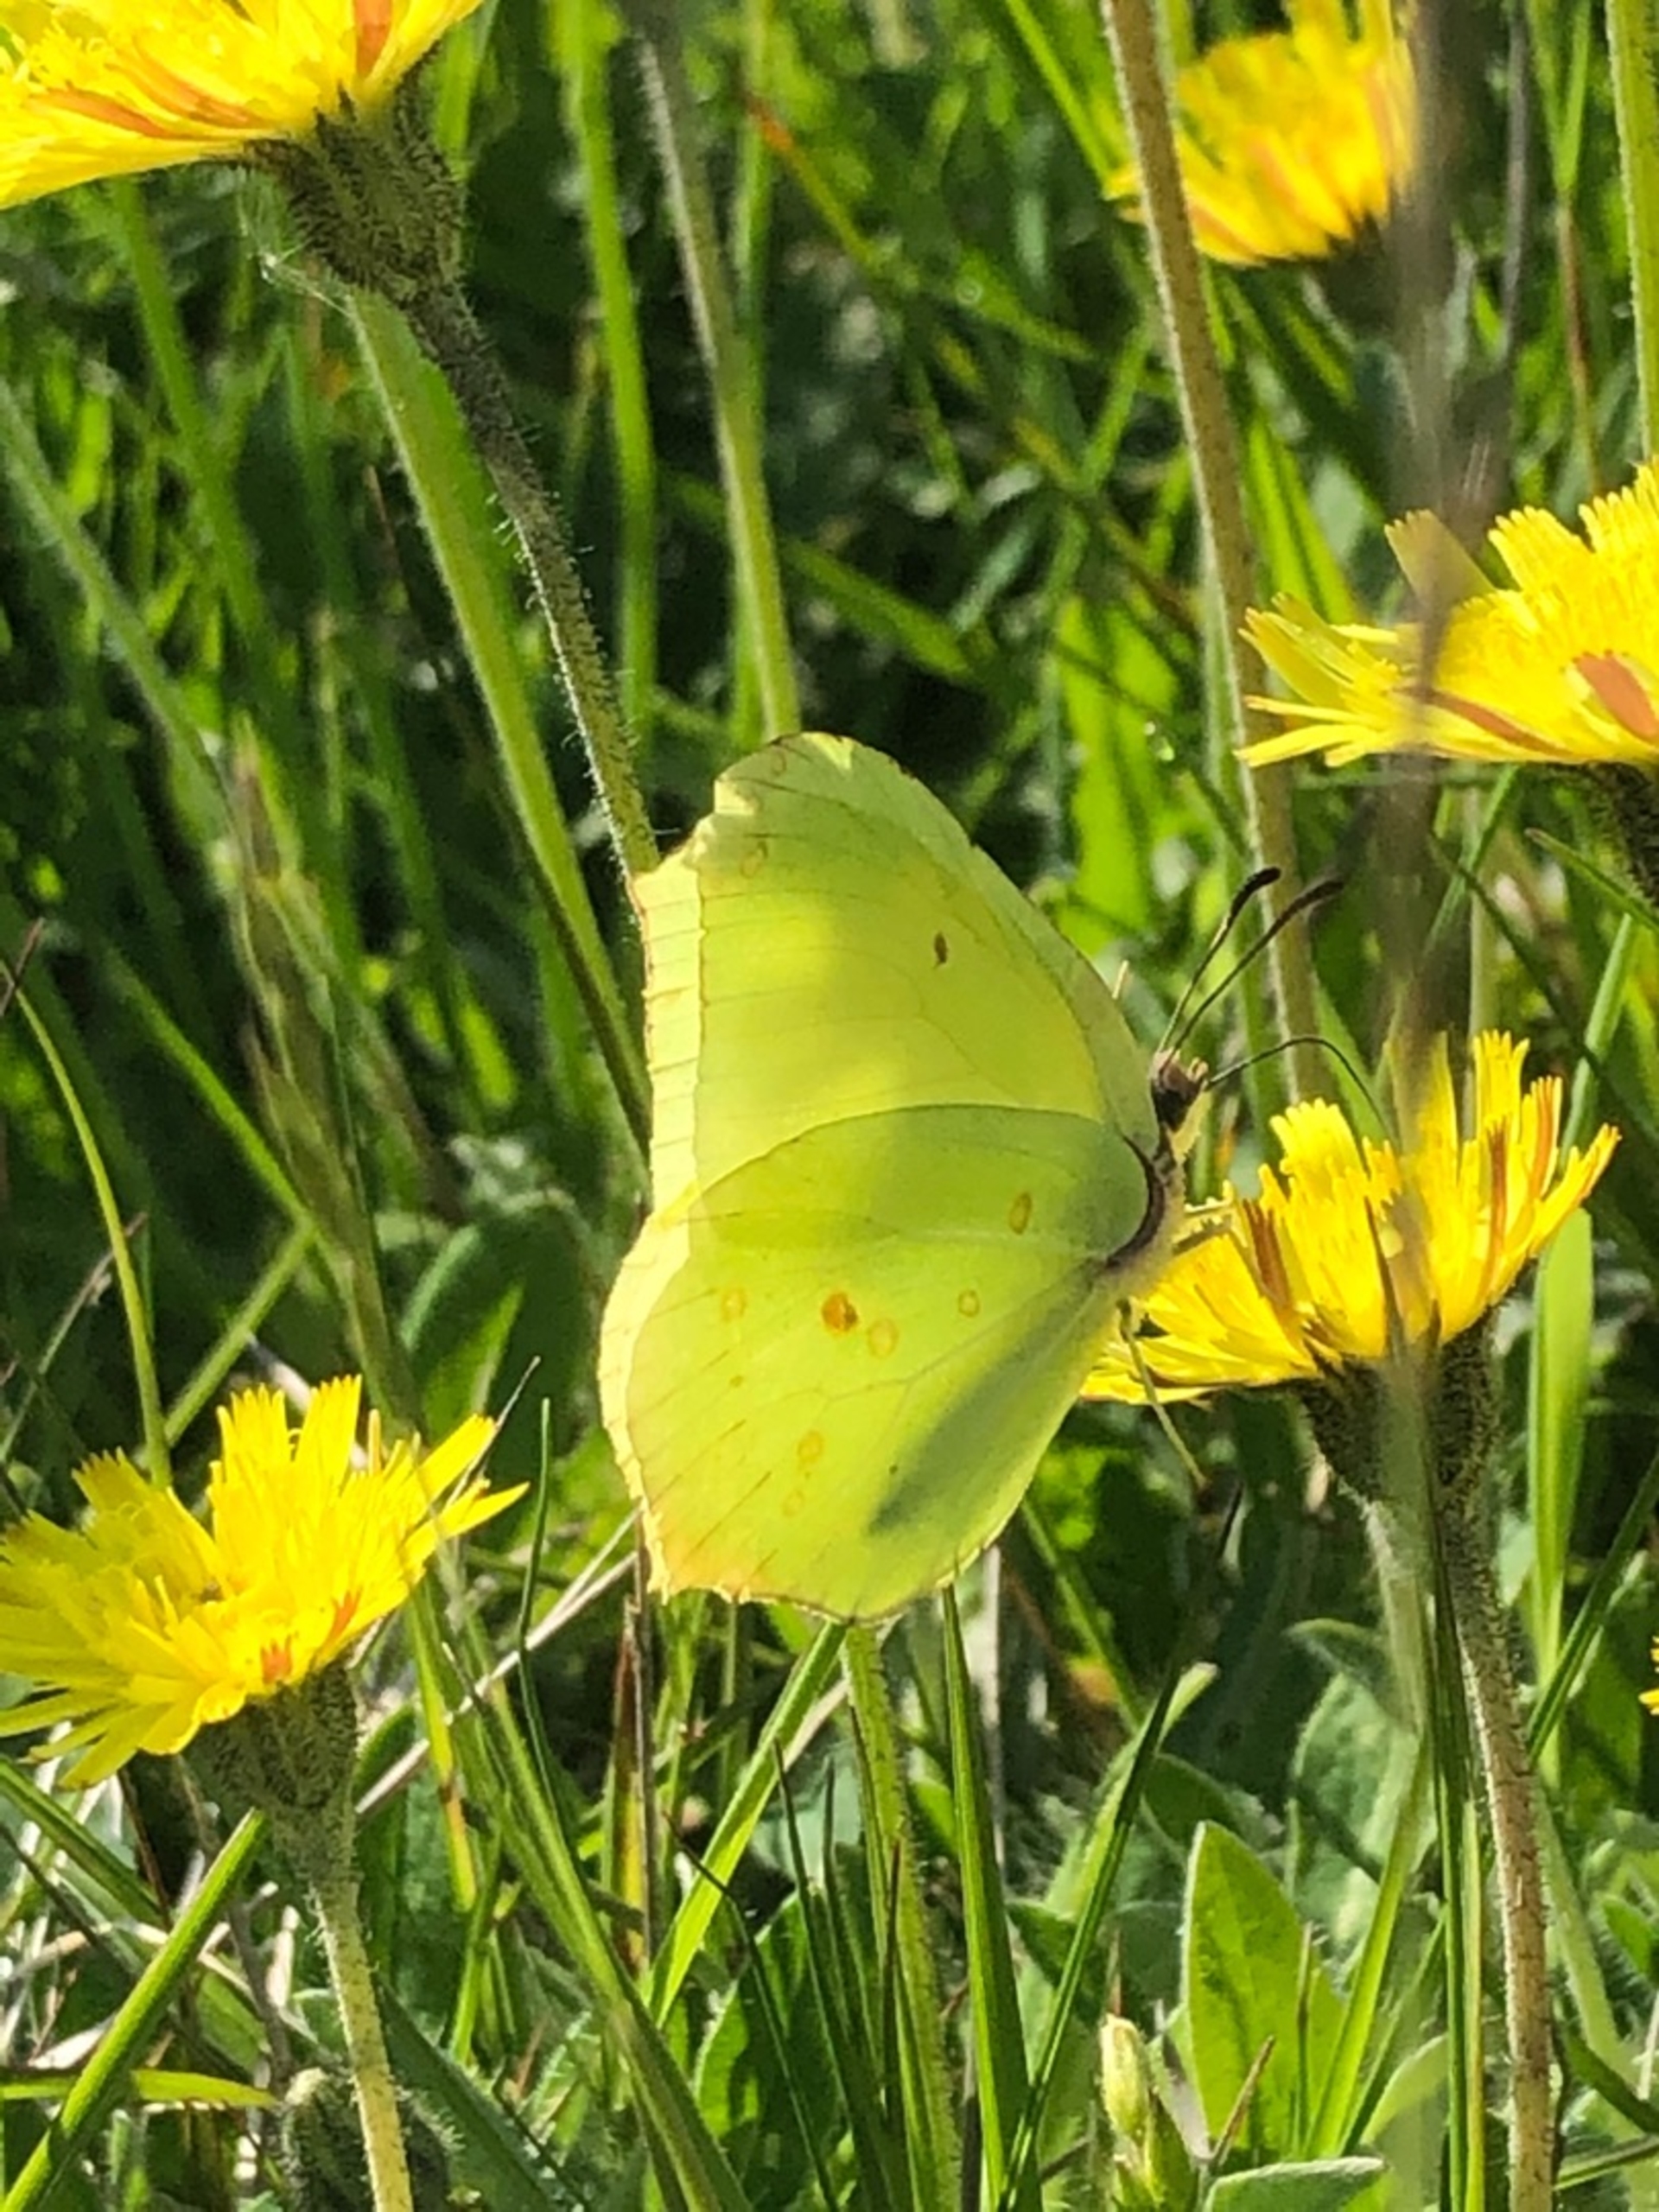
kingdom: Animalia
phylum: Arthropoda
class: Insecta
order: Lepidoptera
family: Pieridae
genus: Gonepteryx
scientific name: Gonepteryx rhamni
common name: Citronsommerfugl
